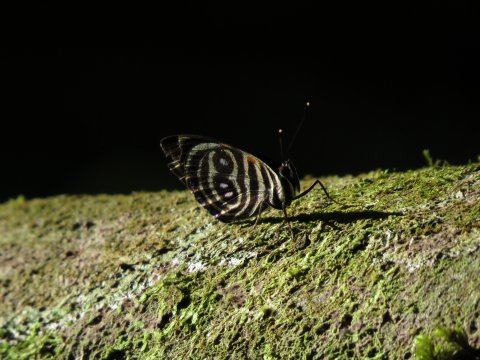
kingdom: Animalia
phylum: Arthropoda
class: Insecta
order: Lepidoptera
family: Nymphalidae
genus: Catagramma
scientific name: Catagramma Callicore tolima
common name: Blue-and-orange Eighty-eight
